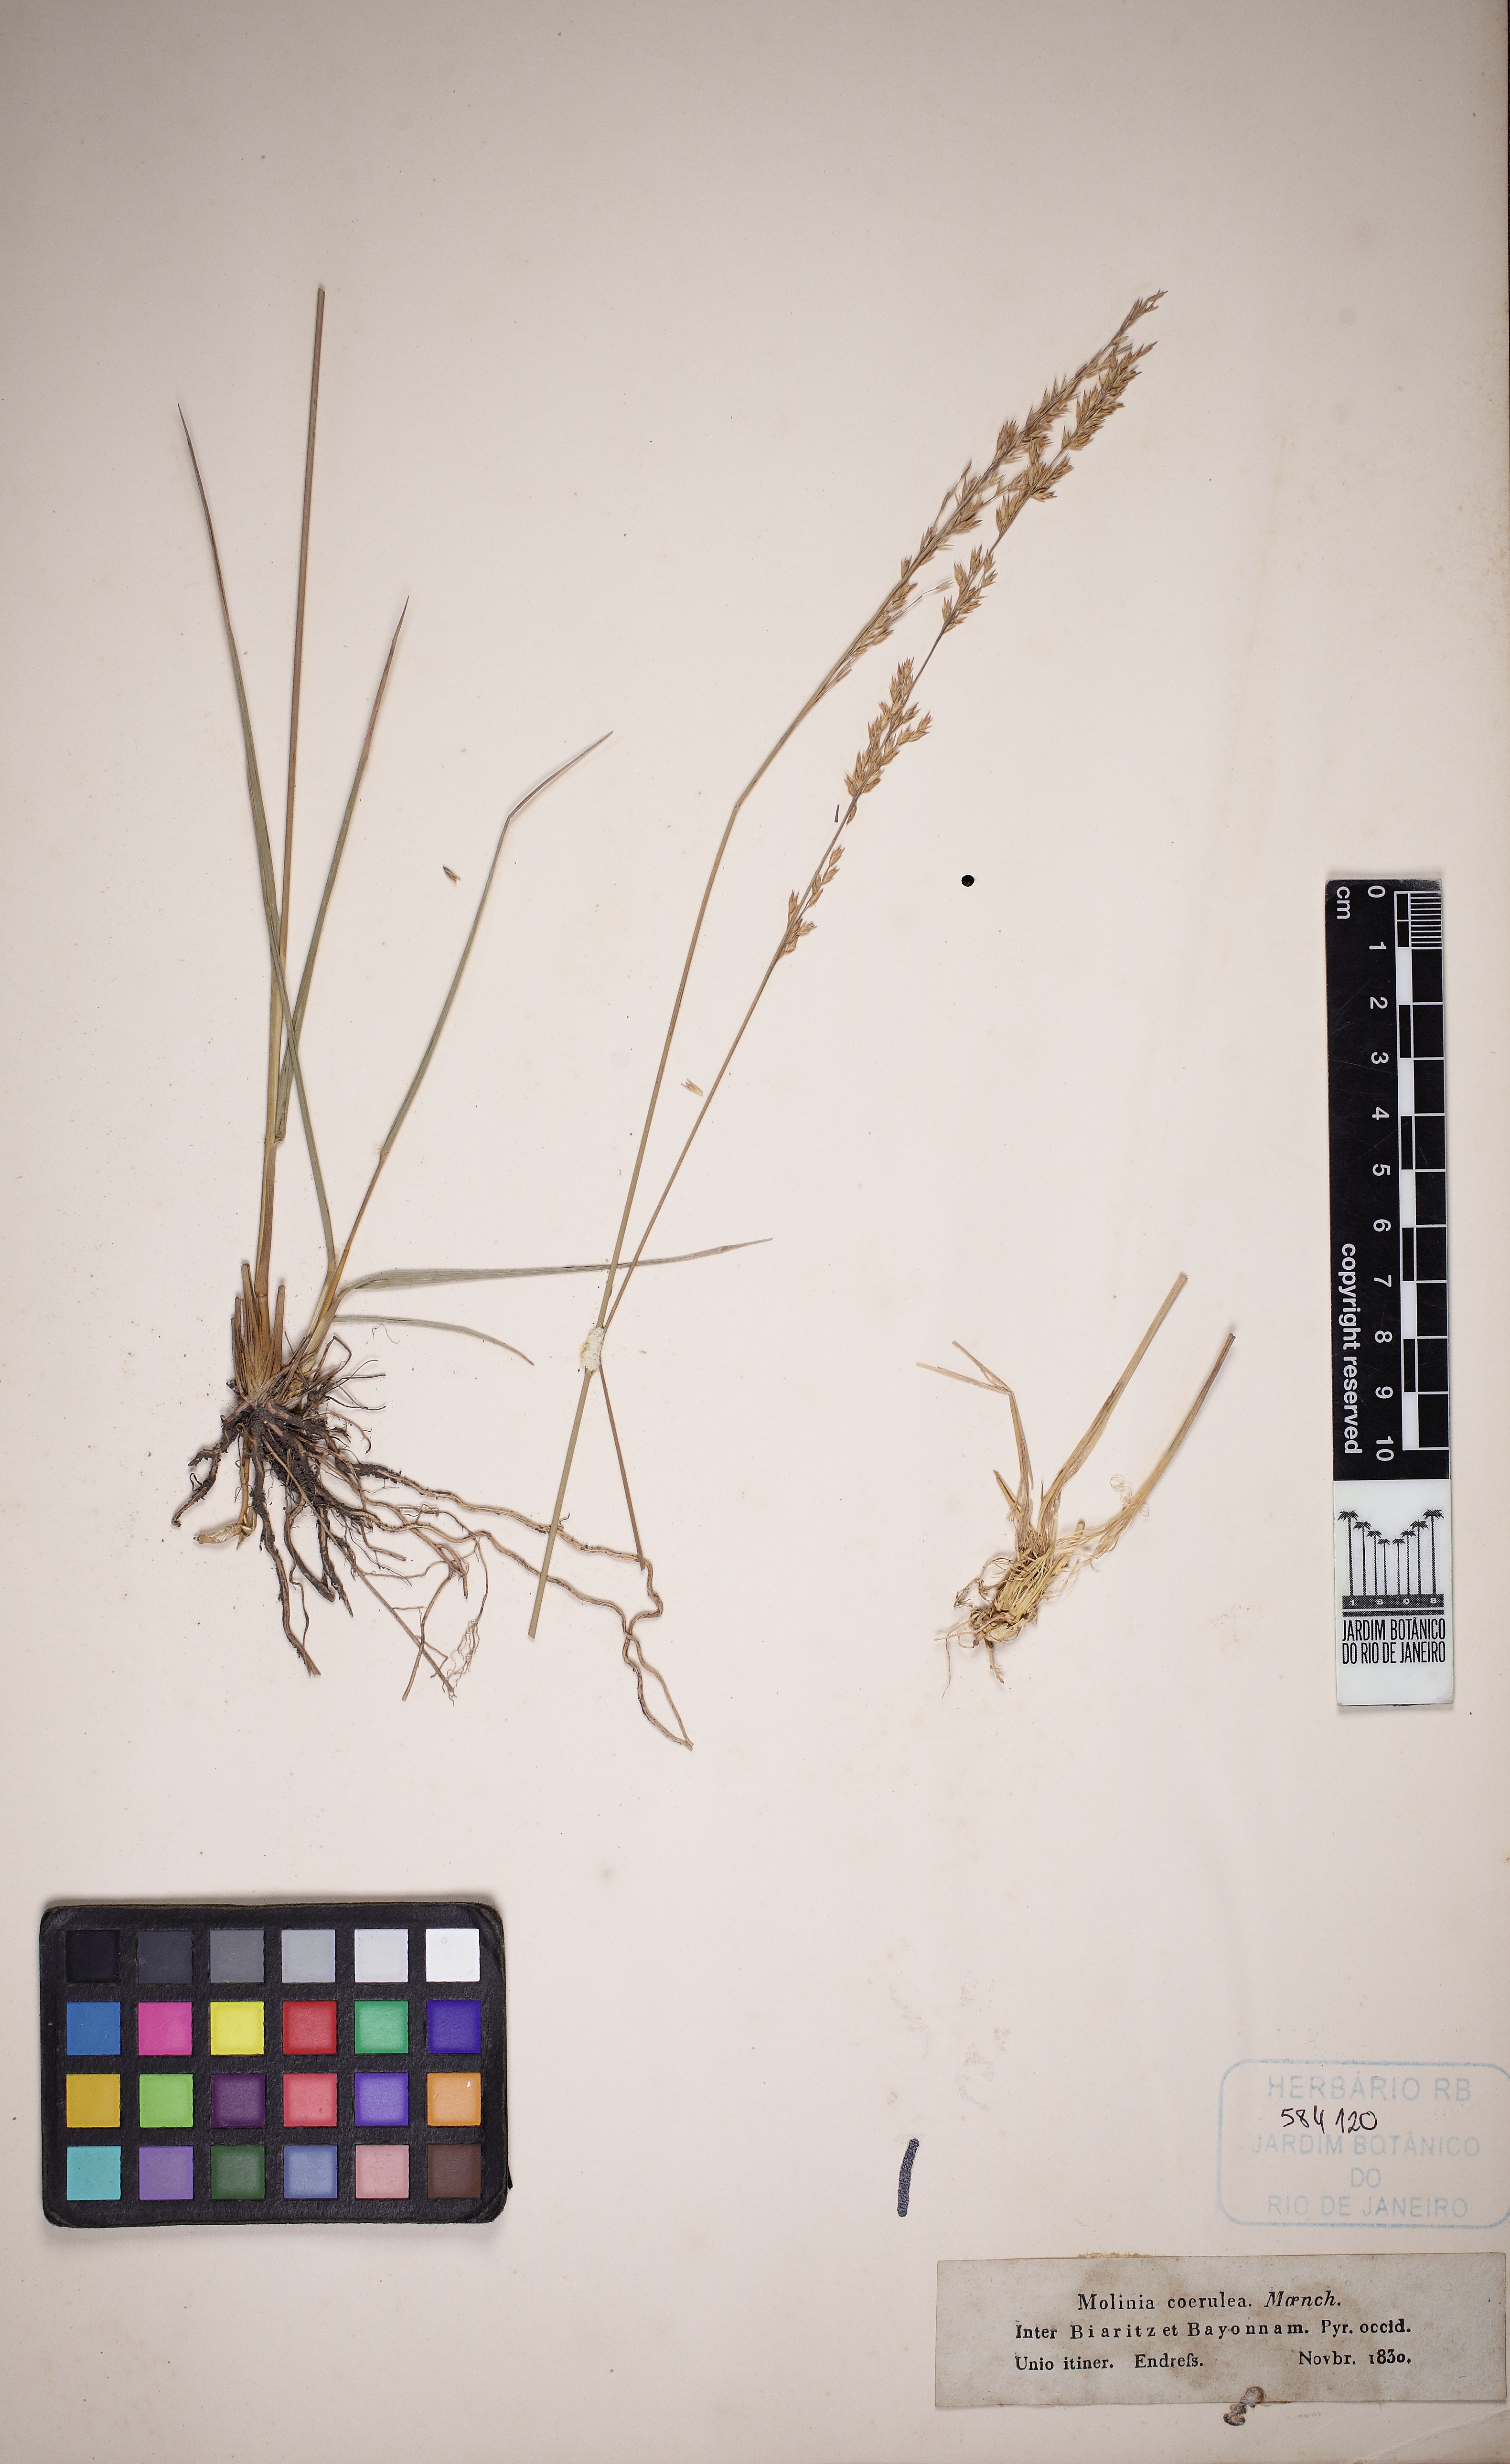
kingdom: Plantae
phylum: Tracheophyta
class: Liliopsida
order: Poales
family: Poaceae
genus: Molinia
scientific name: Molinia caerulea
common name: Purple moor-grass
